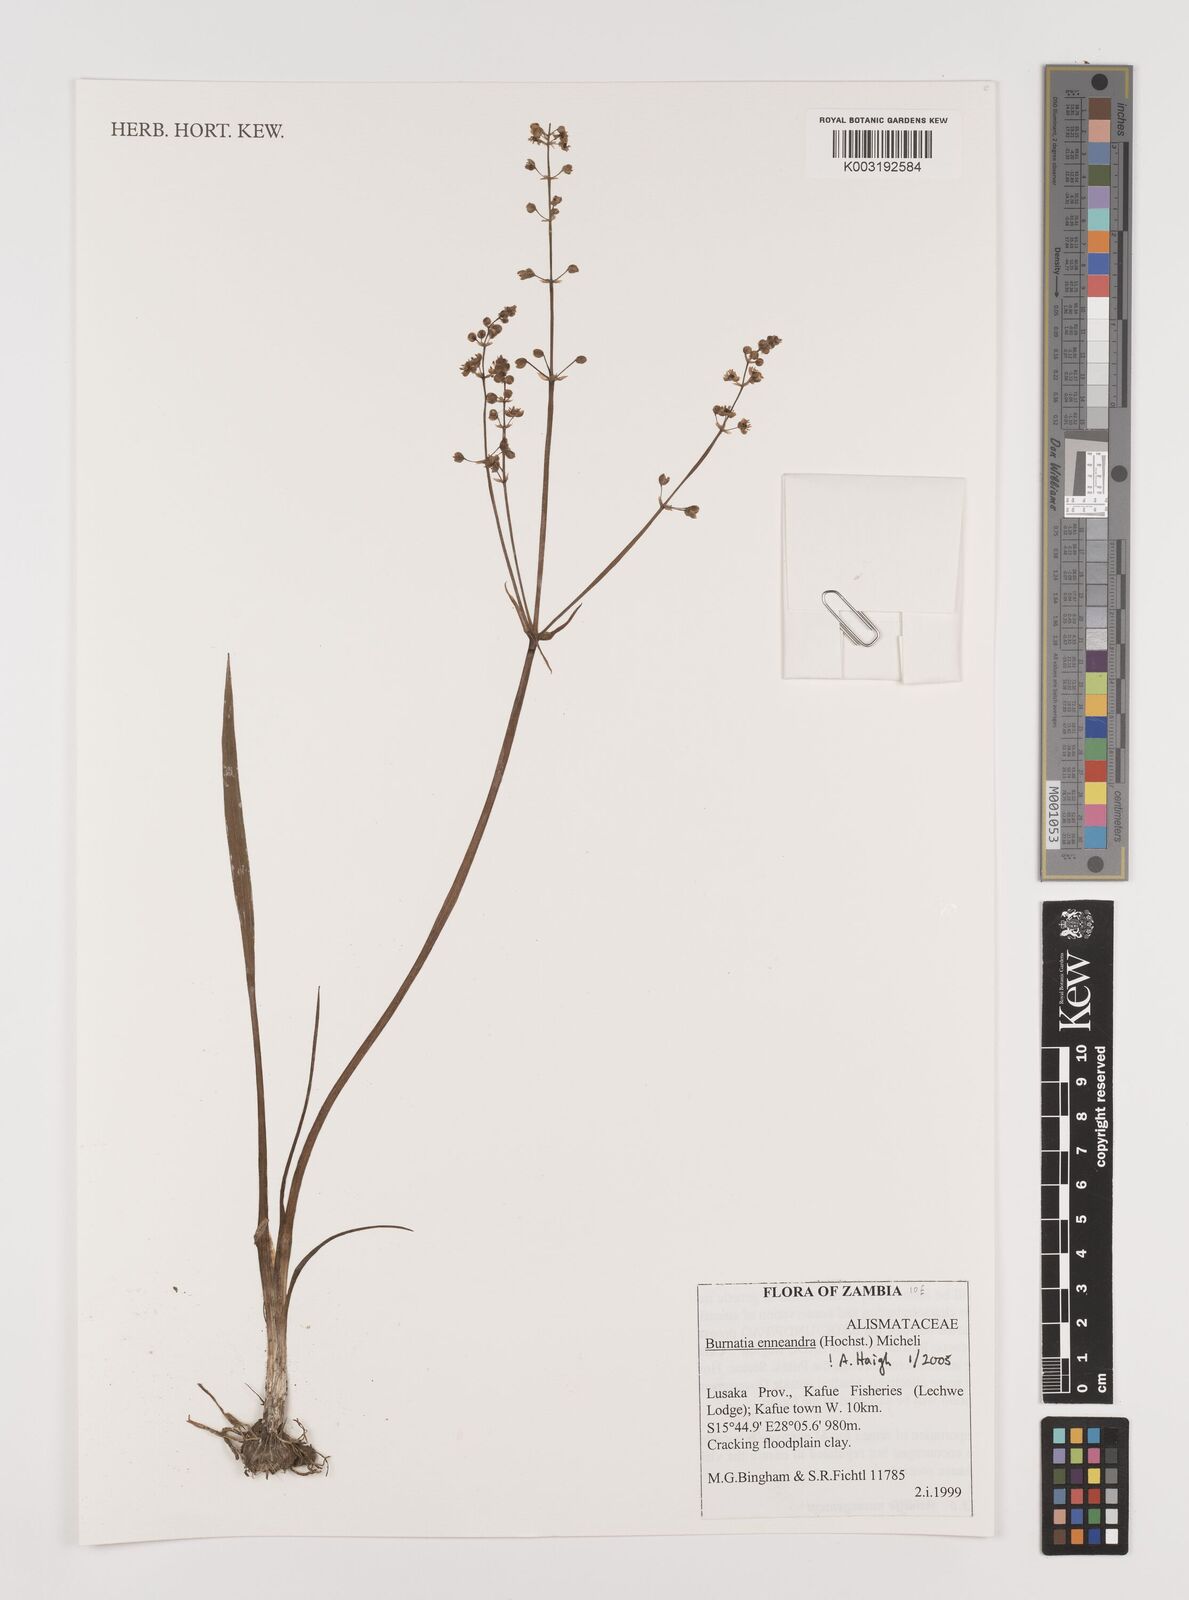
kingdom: Plantae
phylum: Tracheophyta
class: Liliopsida
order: Alismatales
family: Alismataceae
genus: Burnatia
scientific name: Burnatia enneandra
